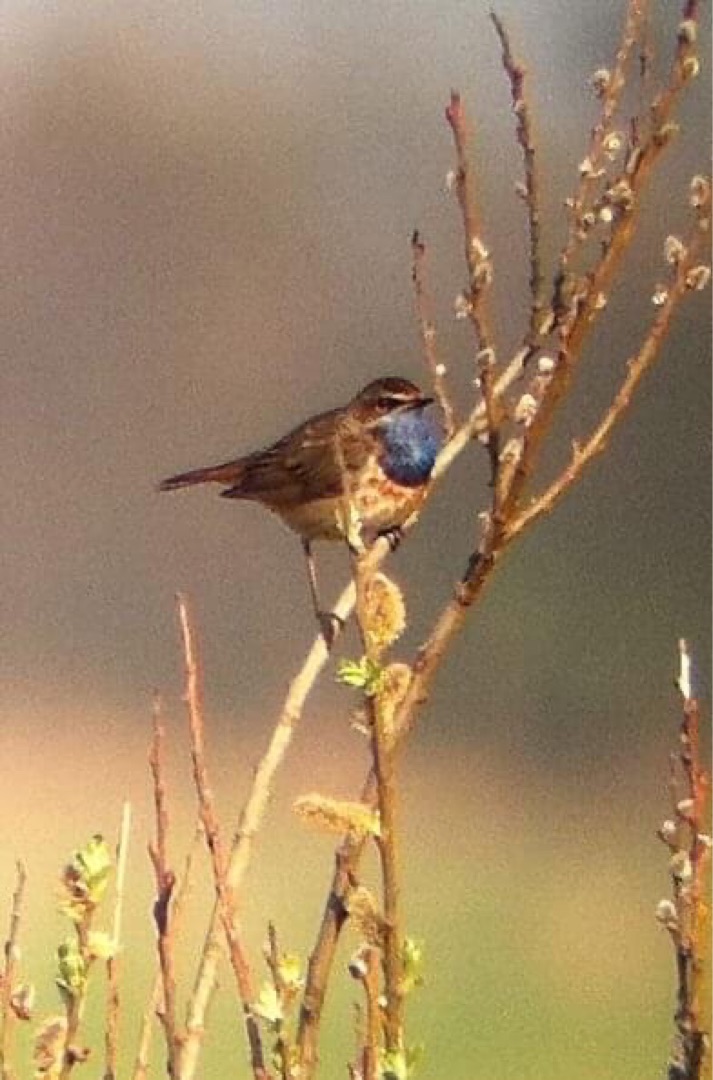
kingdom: Animalia
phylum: Chordata
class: Aves
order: Passeriformes
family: Muscicapidae
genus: Luscinia
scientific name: Luscinia svecica
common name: Blåhals
